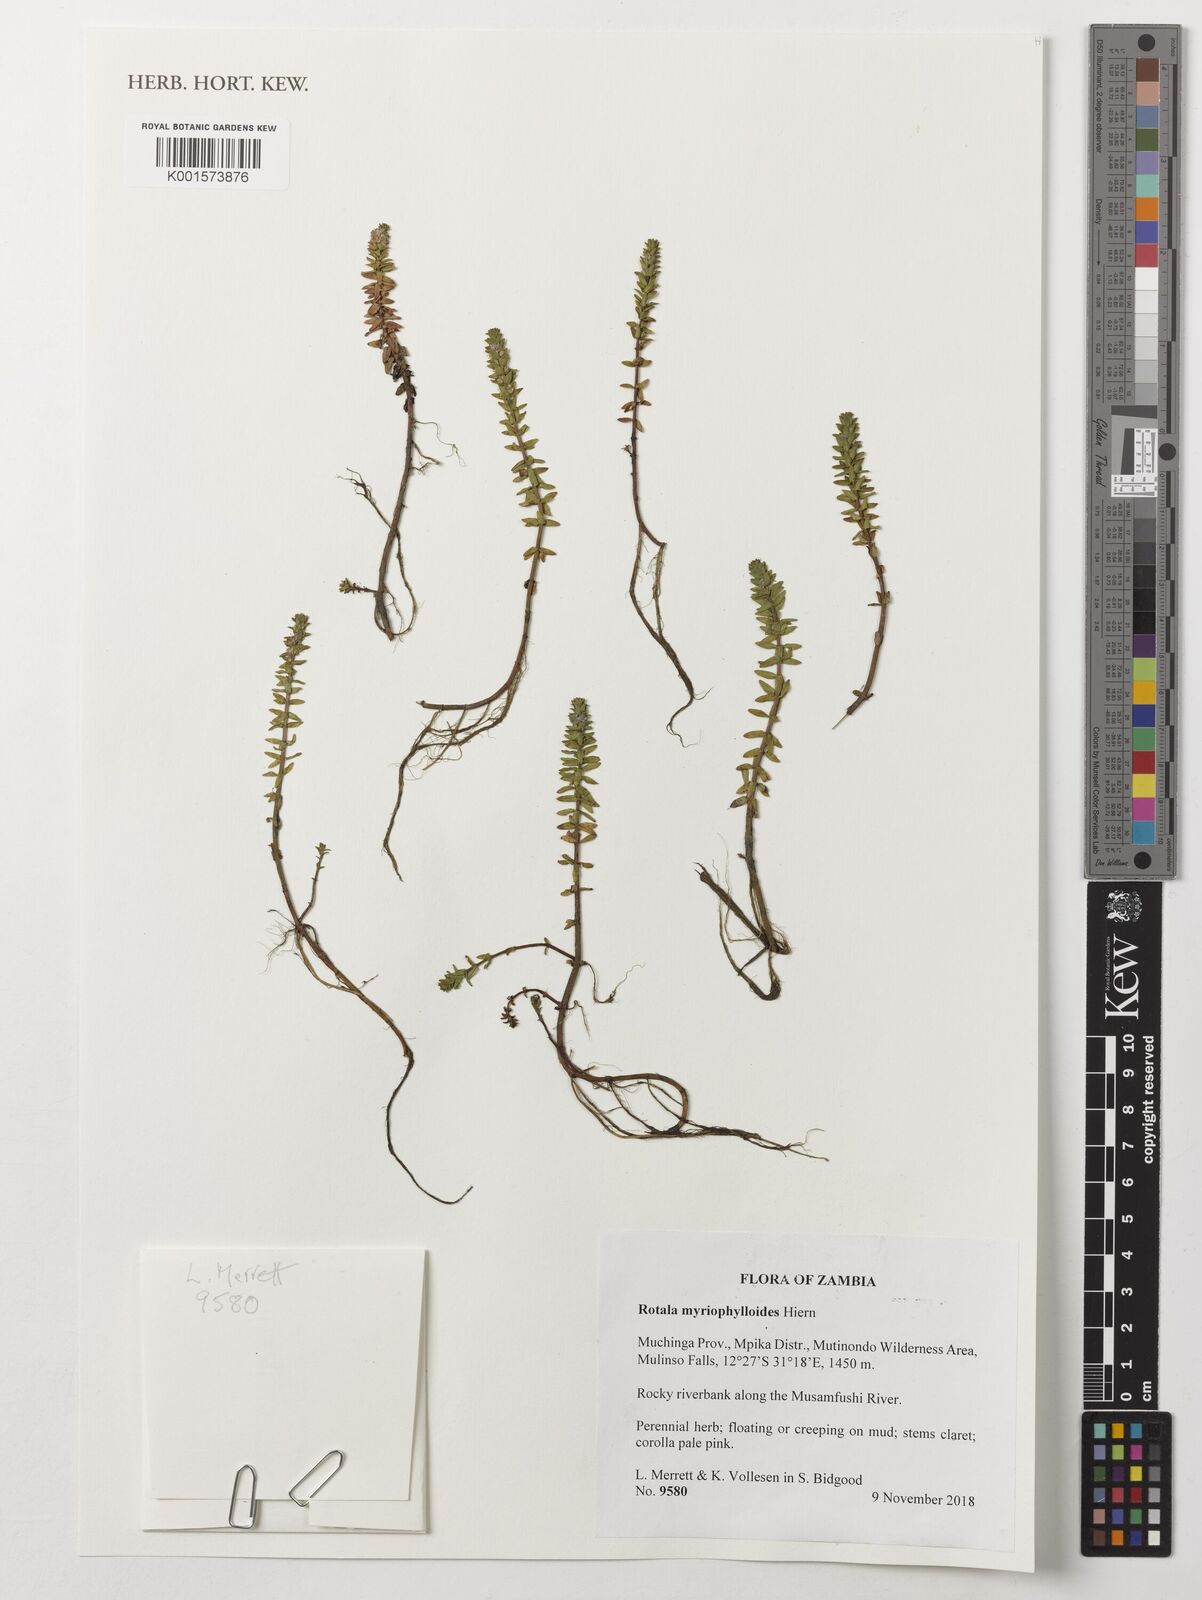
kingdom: Plantae
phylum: Tracheophyta
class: Magnoliopsida
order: Myrtales
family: Lythraceae
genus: Rotala
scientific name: Rotala myriophylloides
